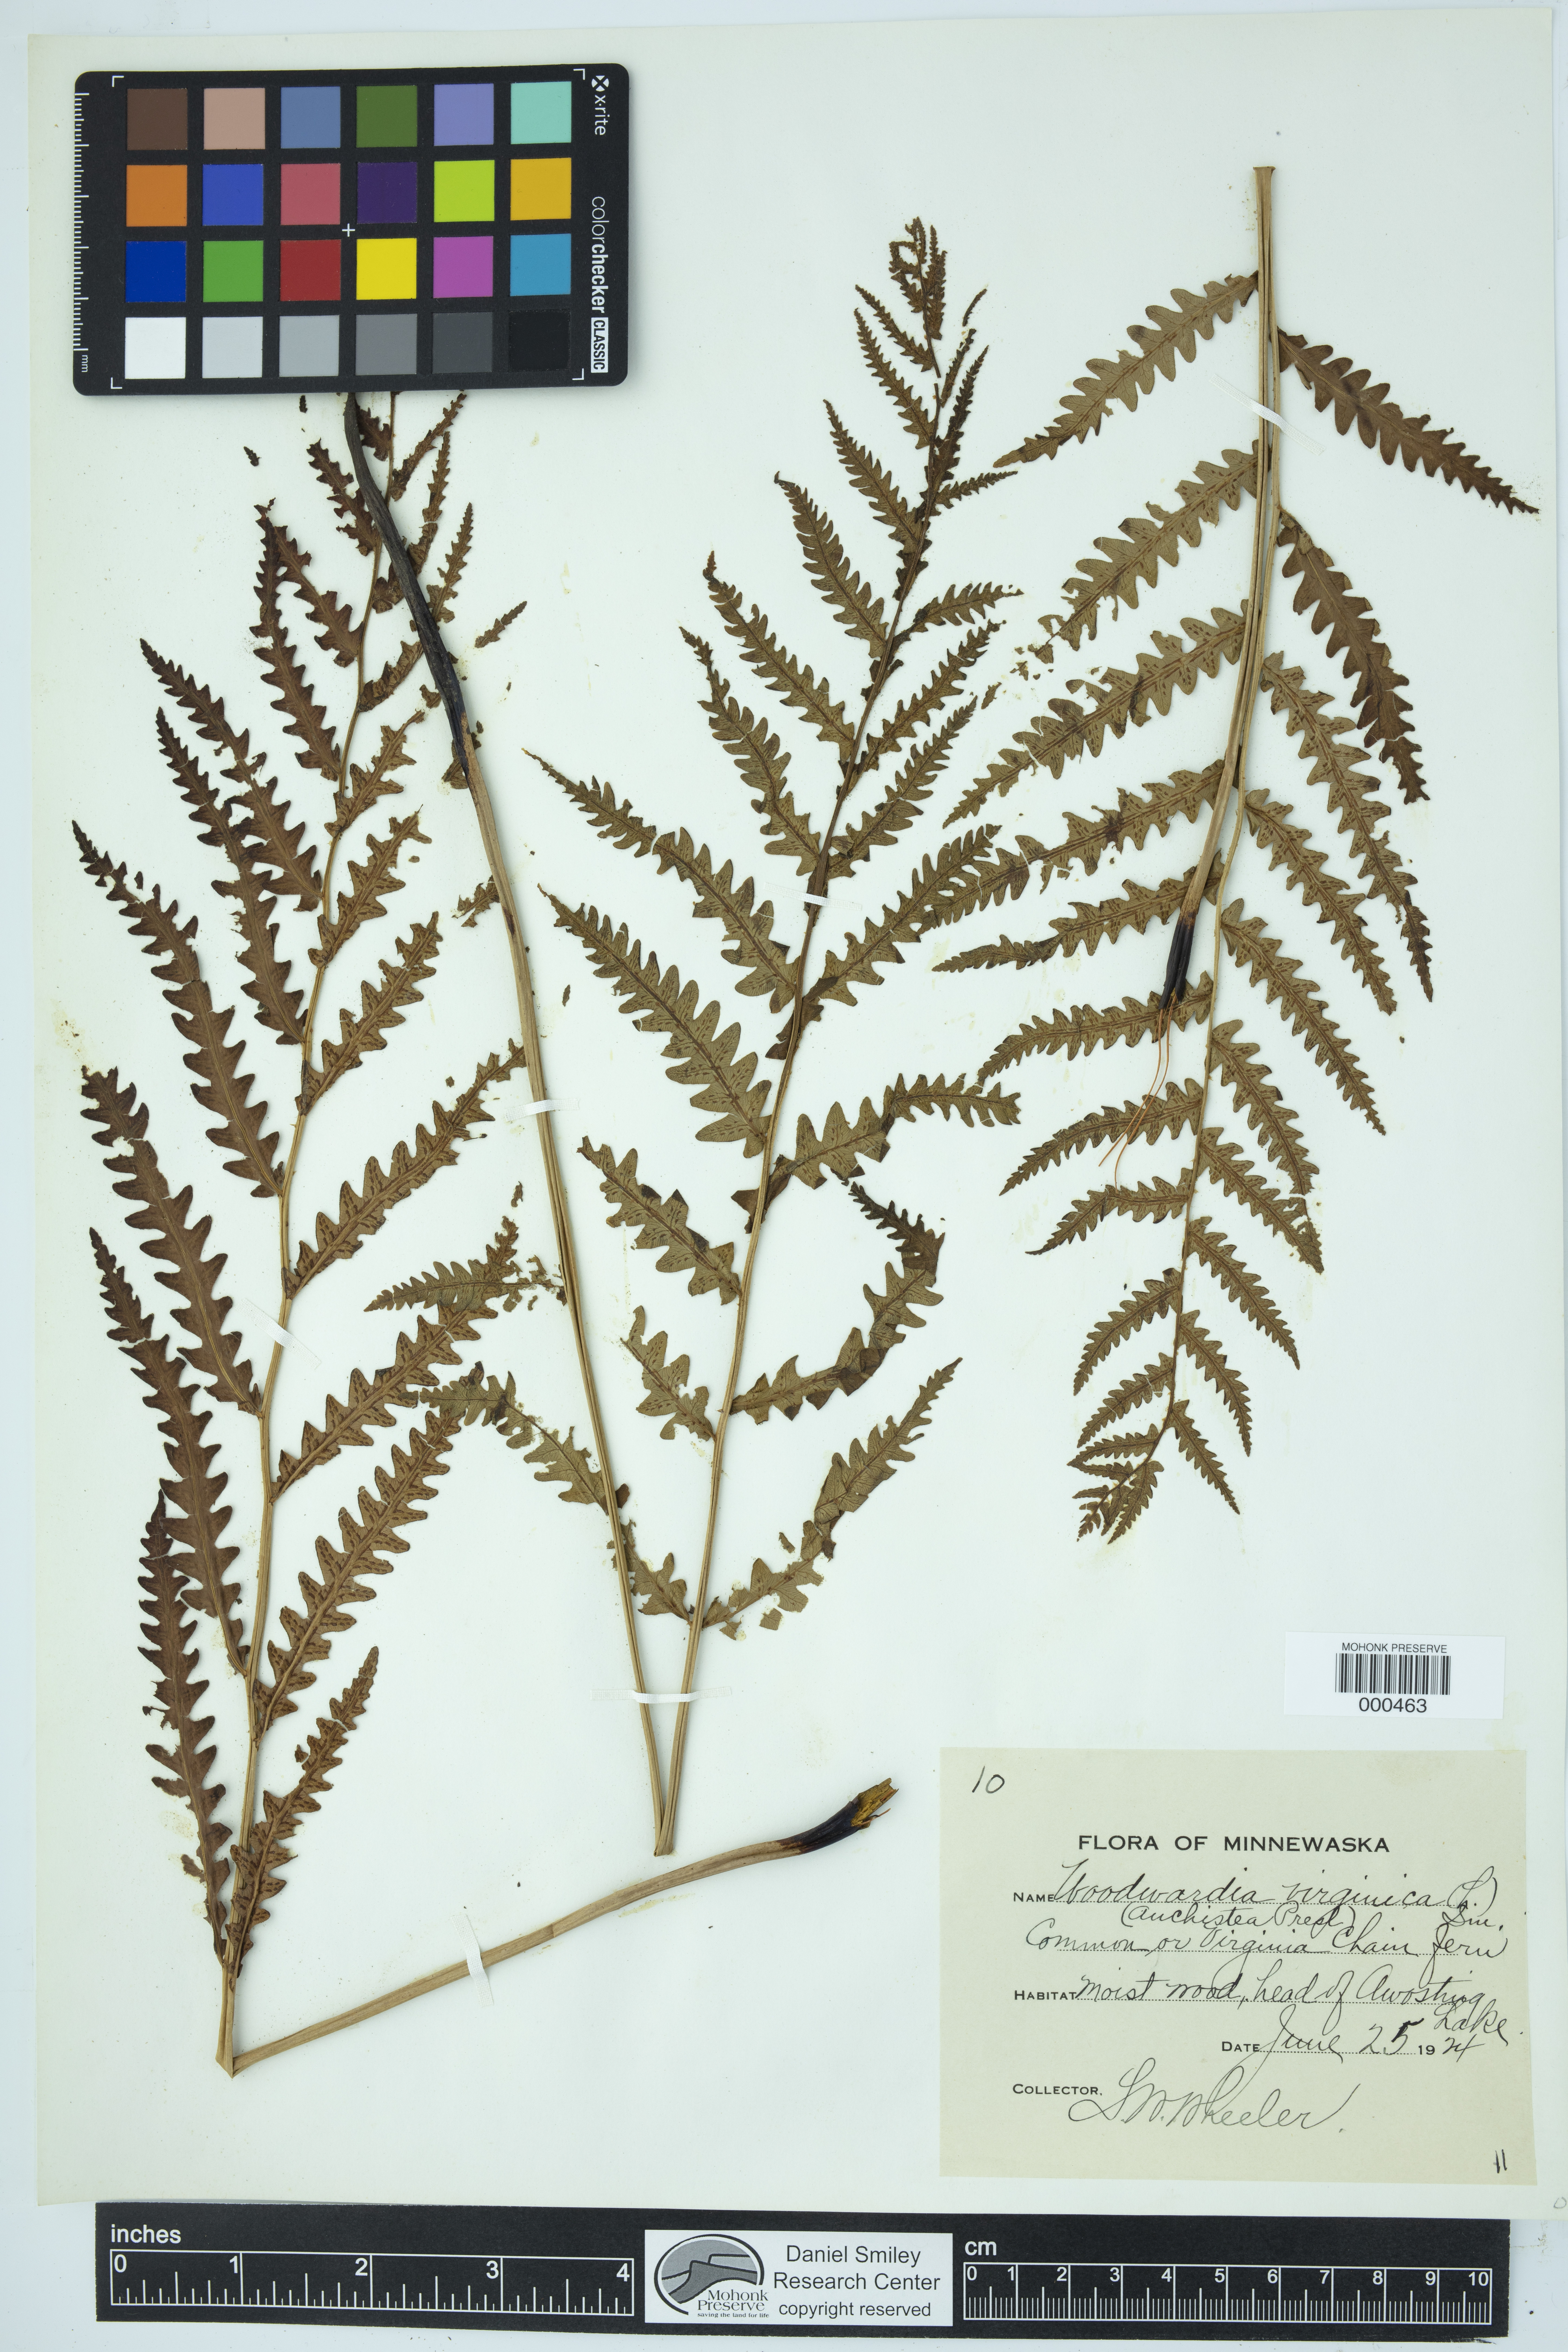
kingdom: Plantae
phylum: Tracheophyta
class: Polypodiopsida
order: Polypodiales
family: Blechnaceae
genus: Anchistea
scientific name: Anchistea virginica
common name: Virginia chain fern
